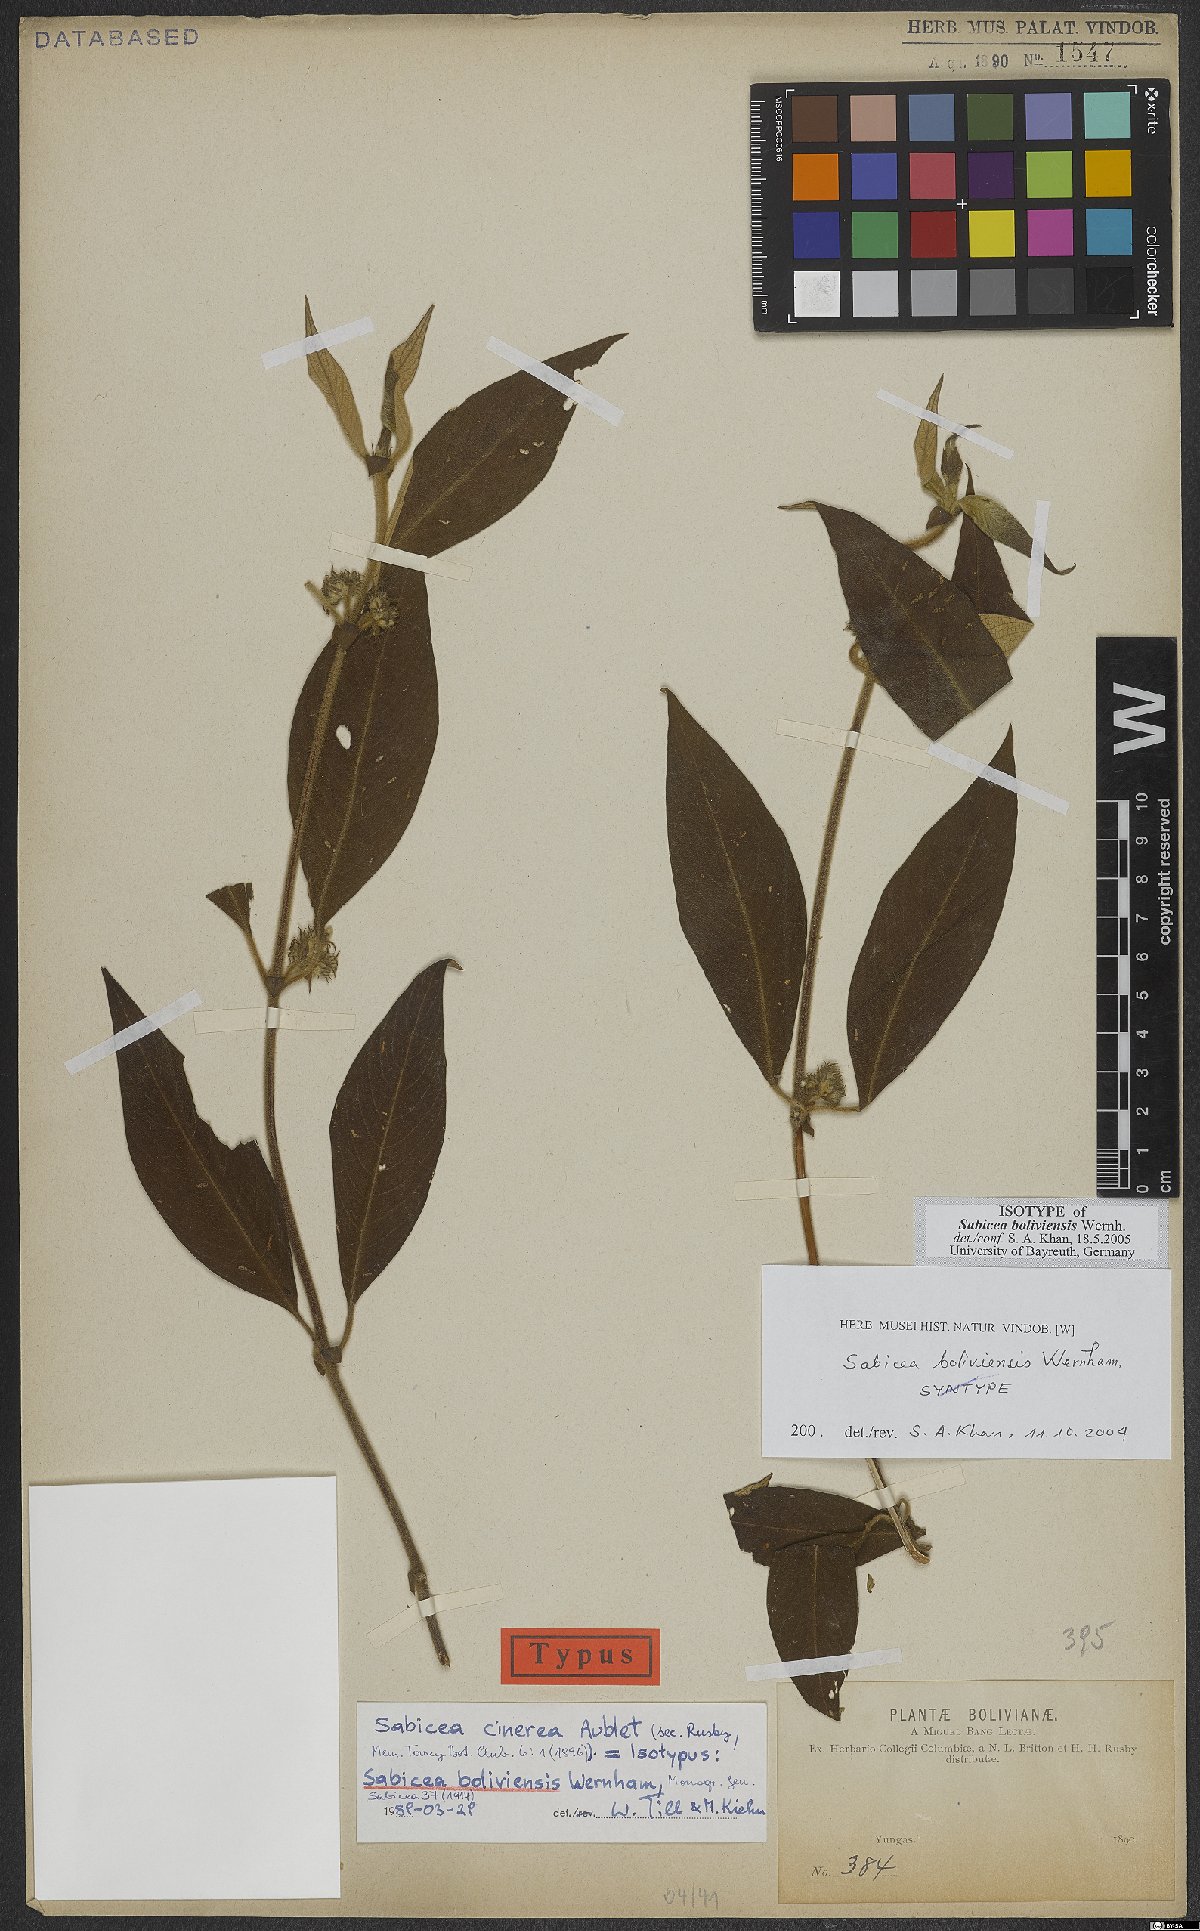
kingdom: Plantae
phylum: Tracheophyta
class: Magnoliopsida
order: Gentianales
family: Rubiaceae
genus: Sabicea
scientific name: Sabicea boliviensis
